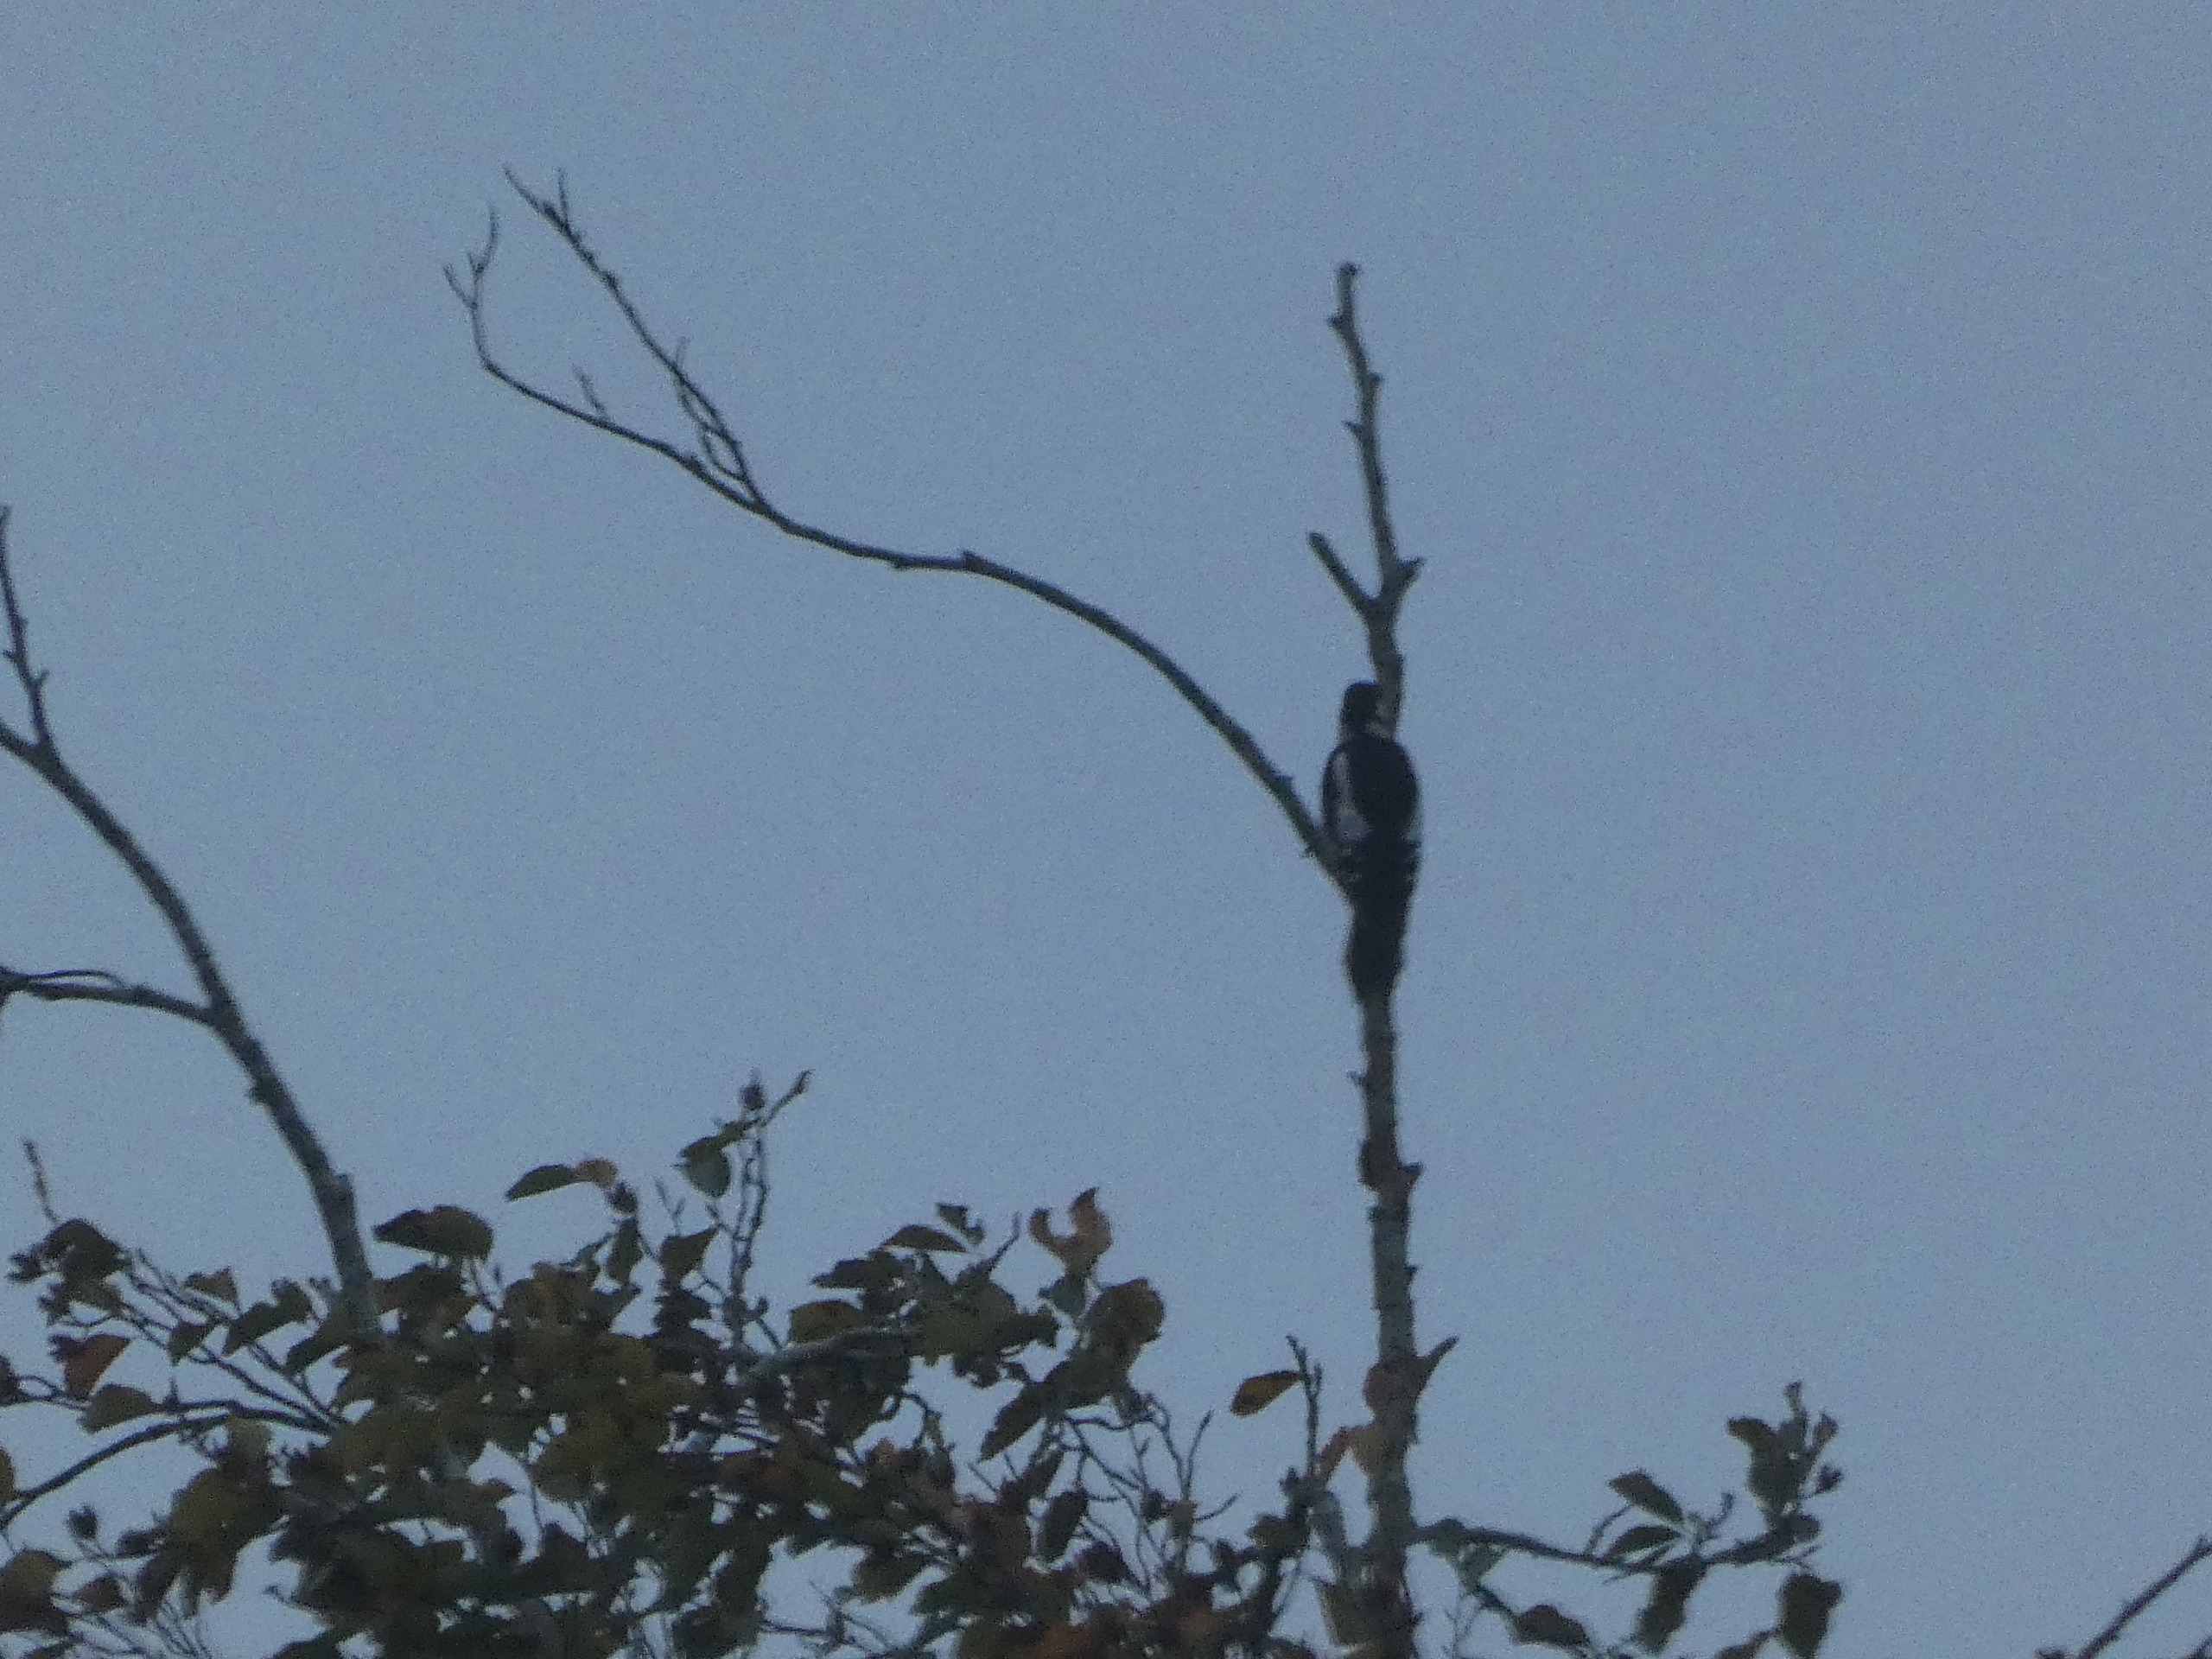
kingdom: Animalia
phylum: Chordata
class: Aves
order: Piciformes
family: Picidae
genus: Dendrocopos
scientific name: Dendrocopos major
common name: Stor flagspætte
